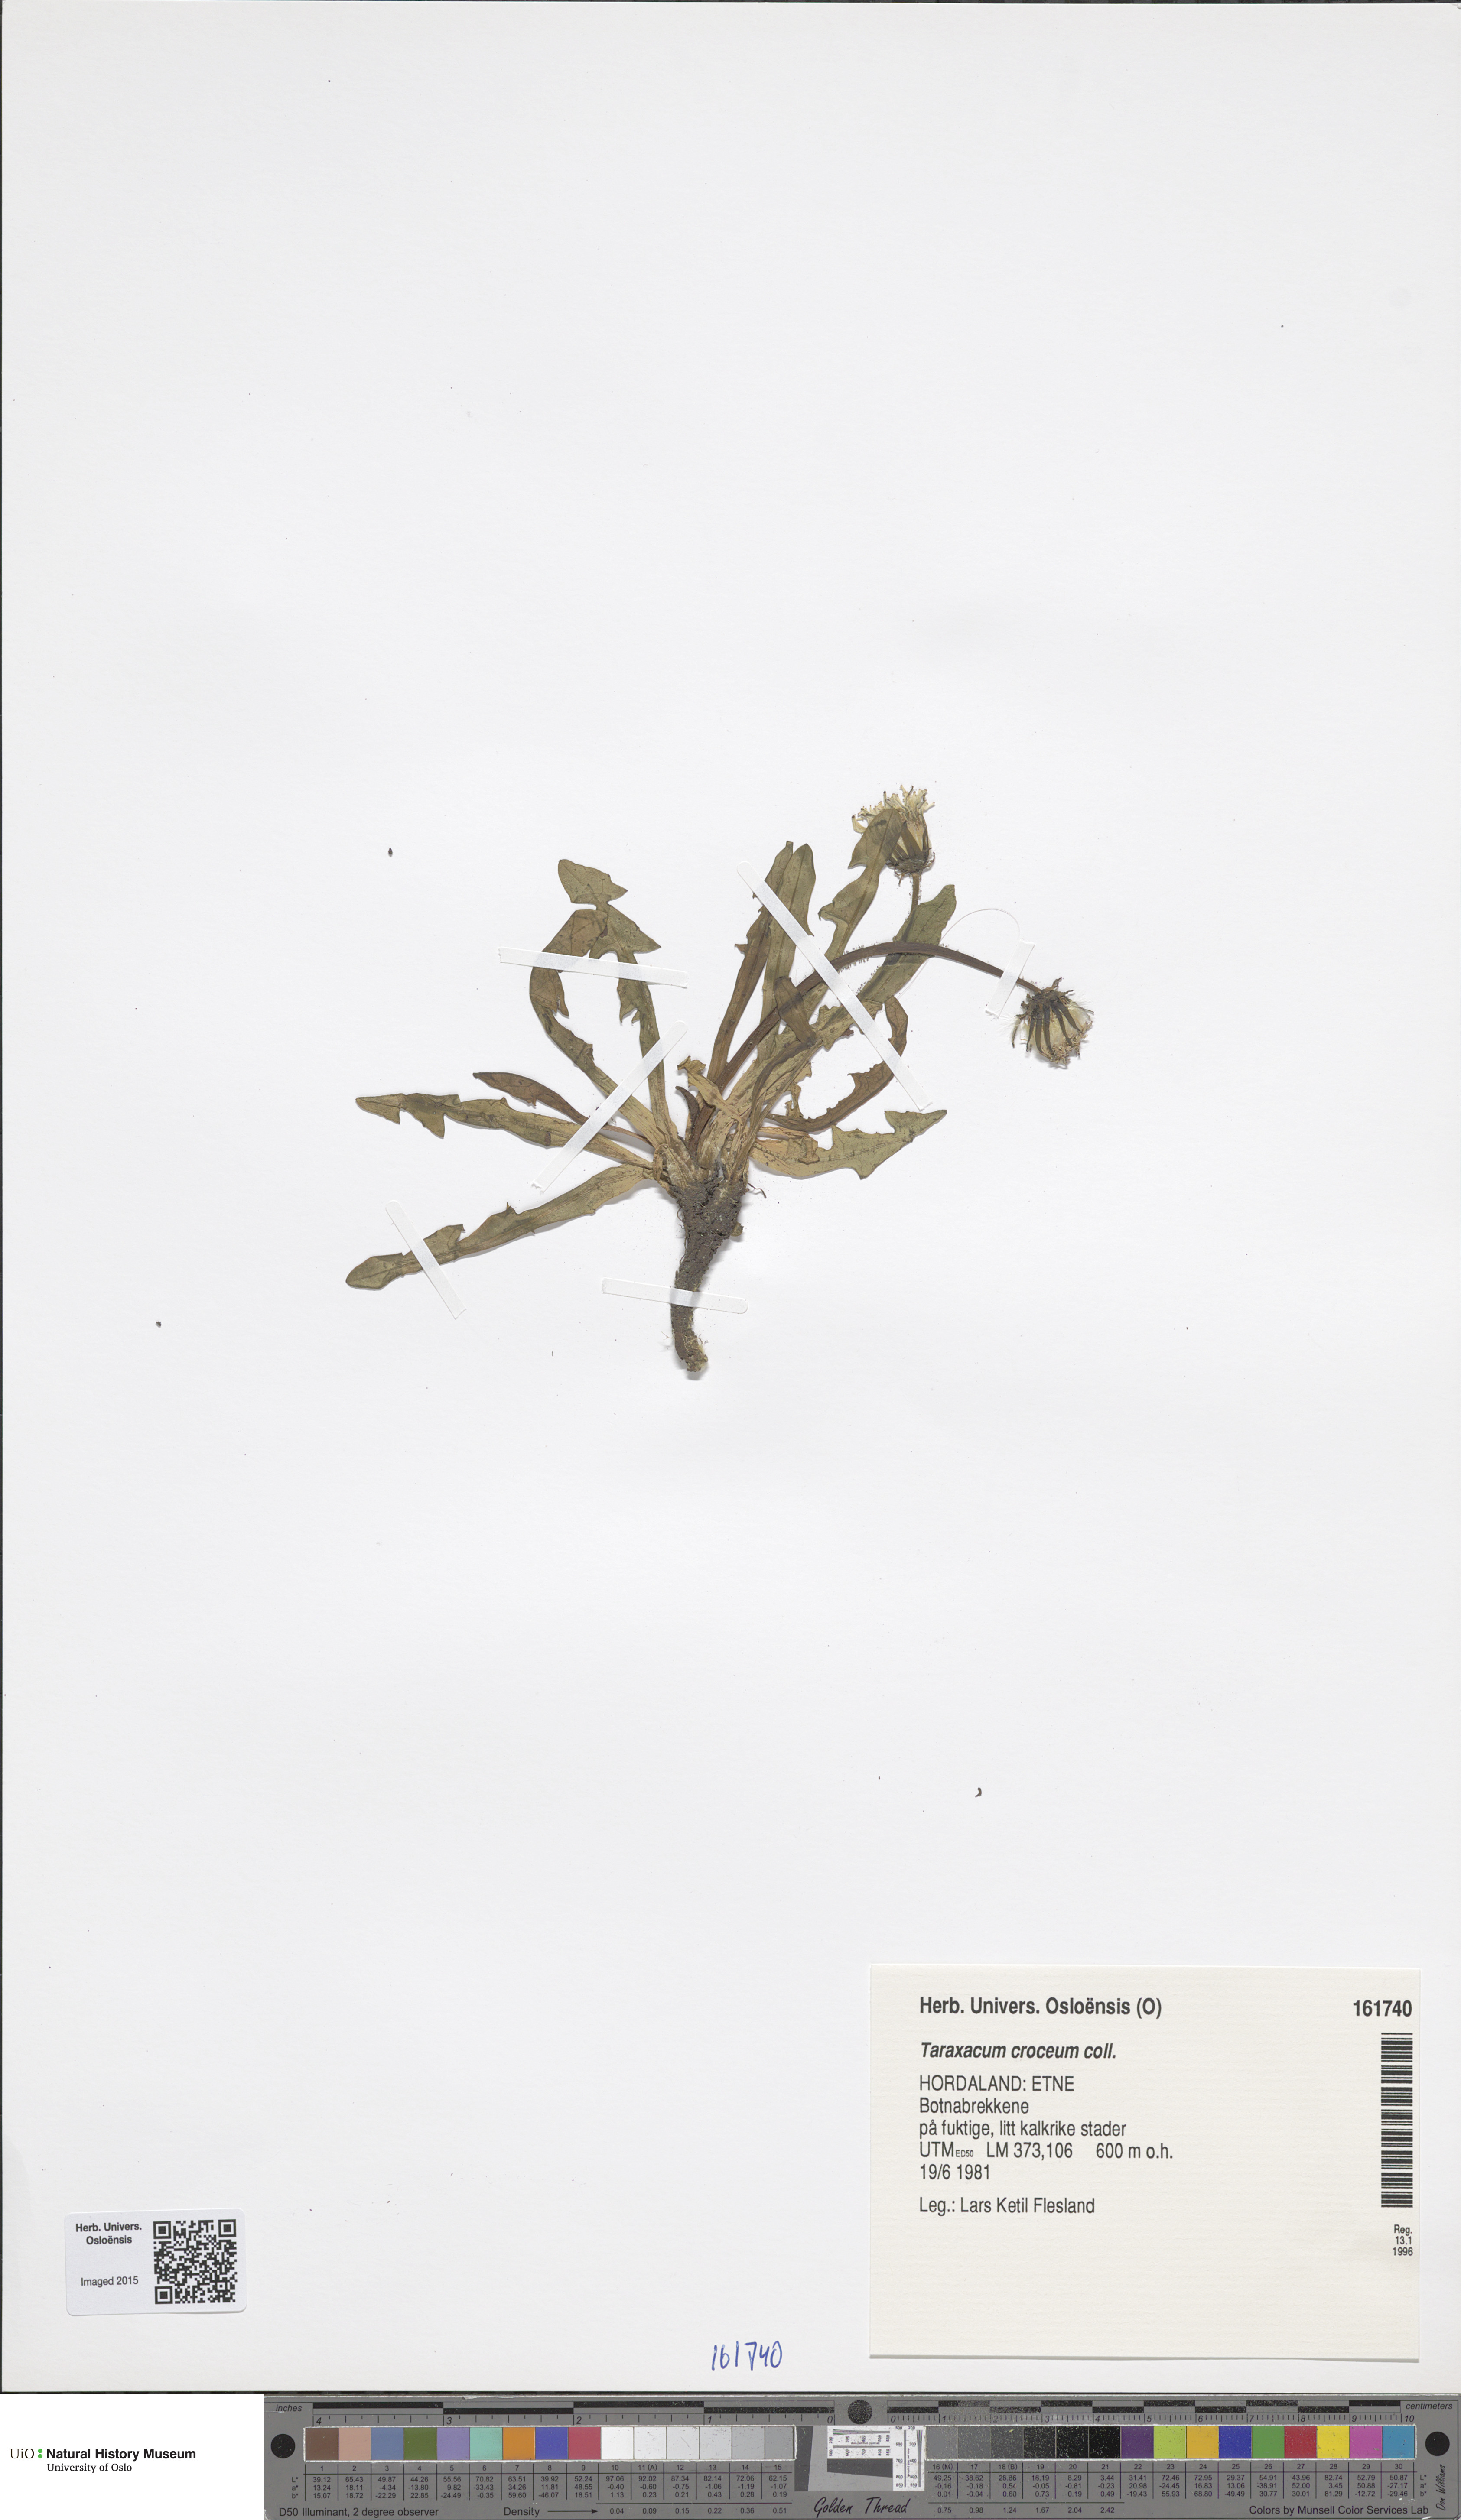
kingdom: Plantae
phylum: Tracheophyta
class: Magnoliopsida
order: Asterales
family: Asteraceae
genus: Taraxacum
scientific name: Taraxacum croceum
